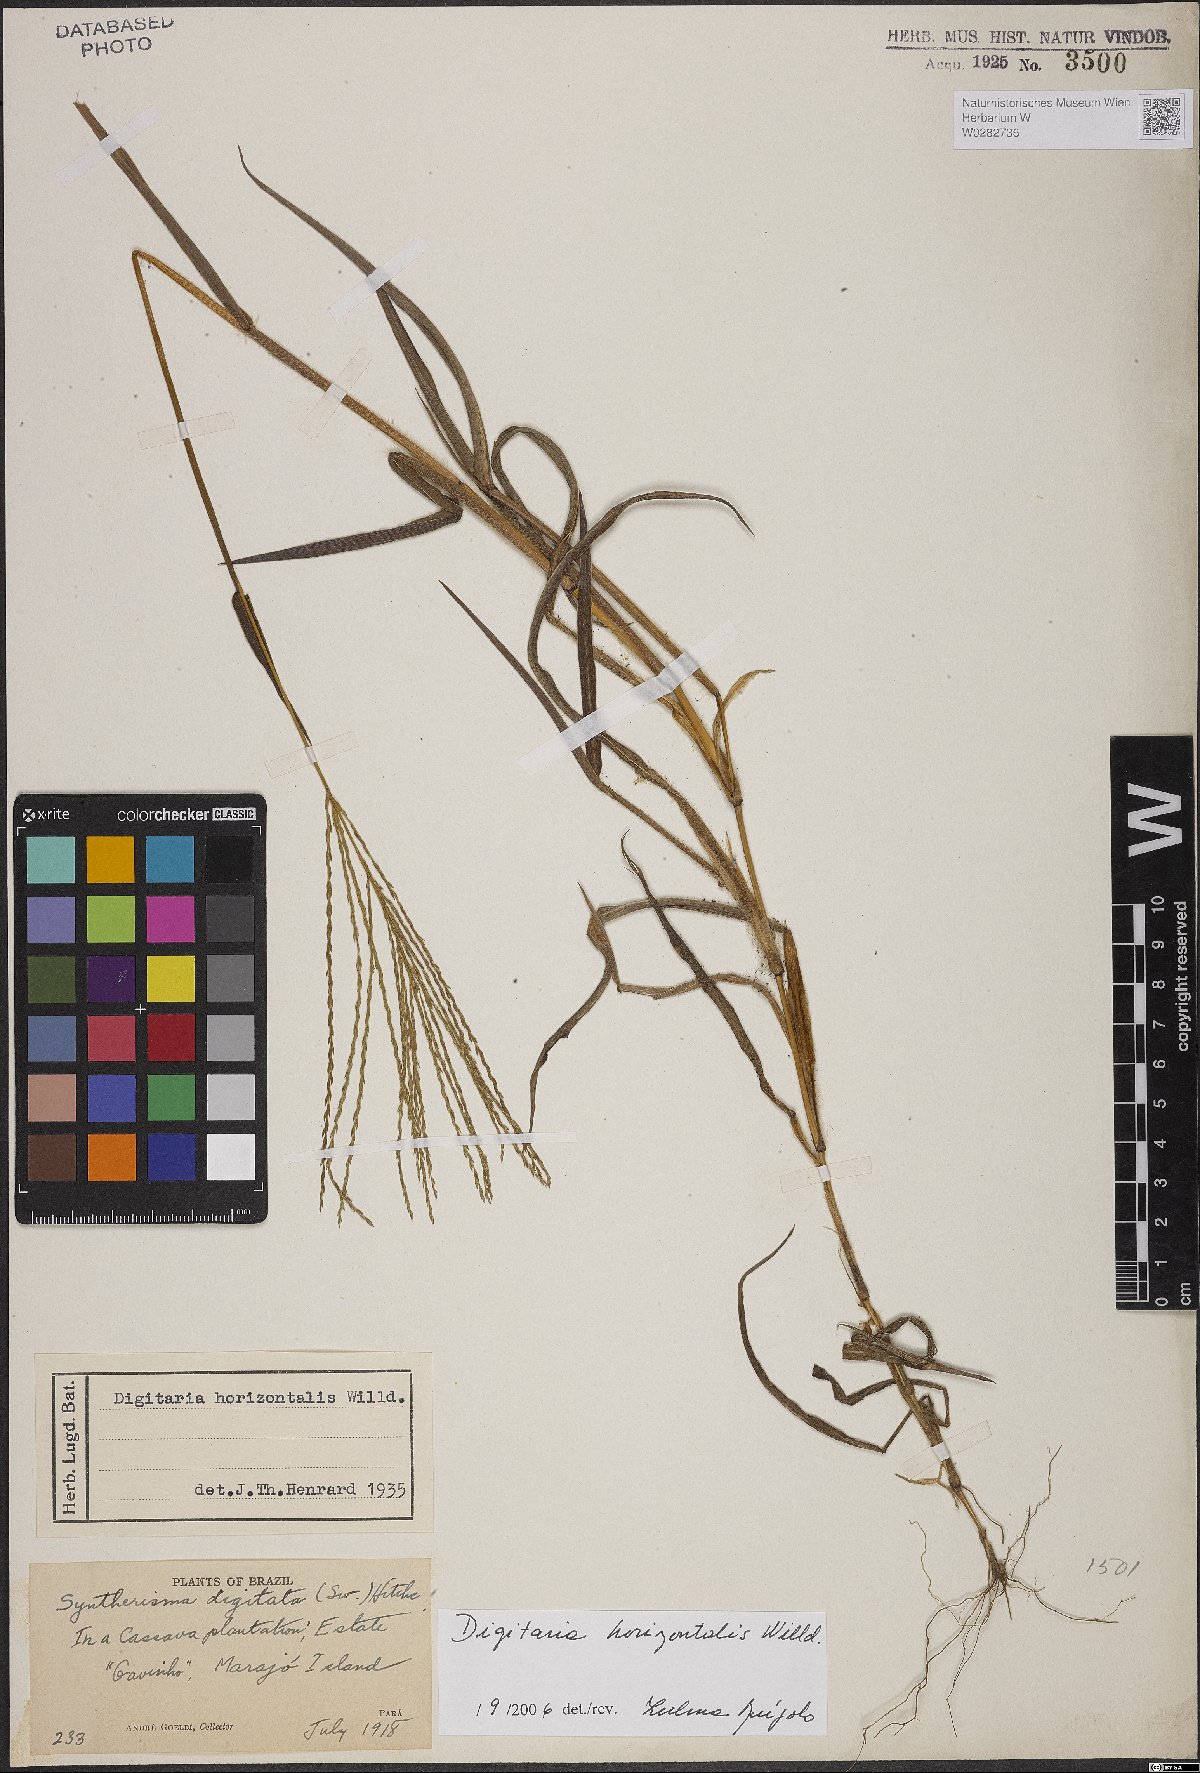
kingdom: Plantae
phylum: Tracheophyta
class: Liliopsida
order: Poales
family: Poaceae
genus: Digitaria
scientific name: Digitaria horizontalis
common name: Jamaican crabgrass
